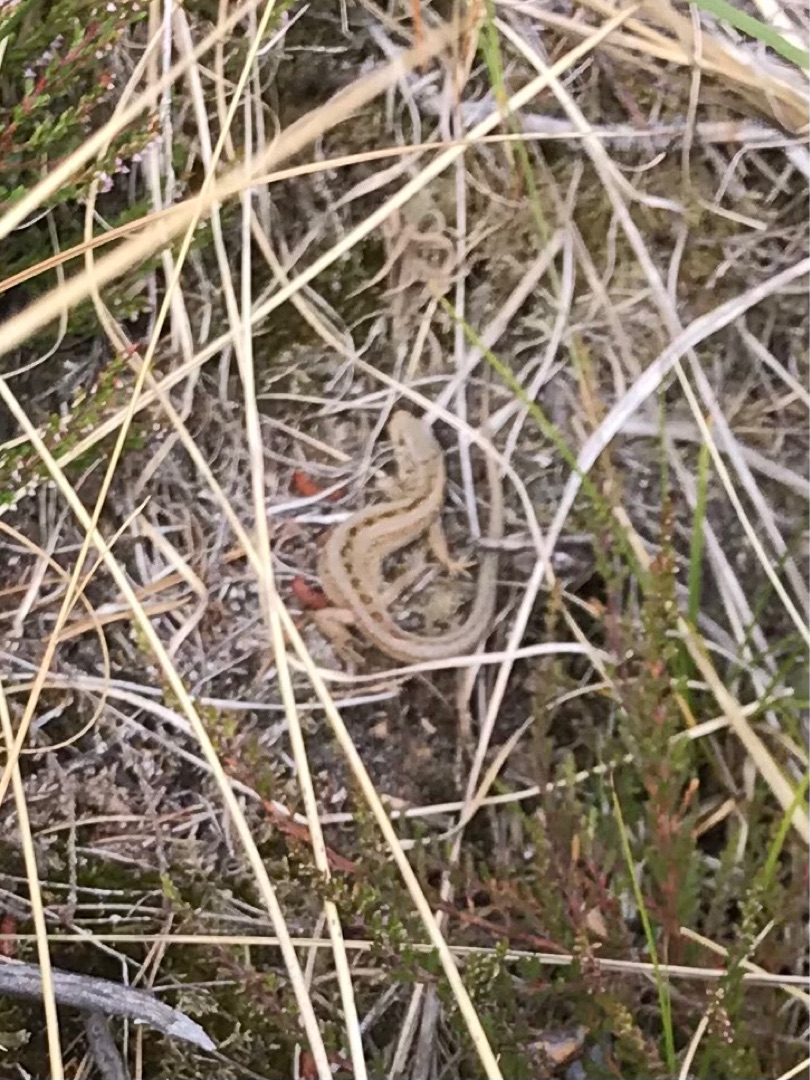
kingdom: Animalia
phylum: Chordata
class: Squamata
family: Lacertidae
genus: Lacerta
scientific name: Lacerta agilis
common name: Markfirben
